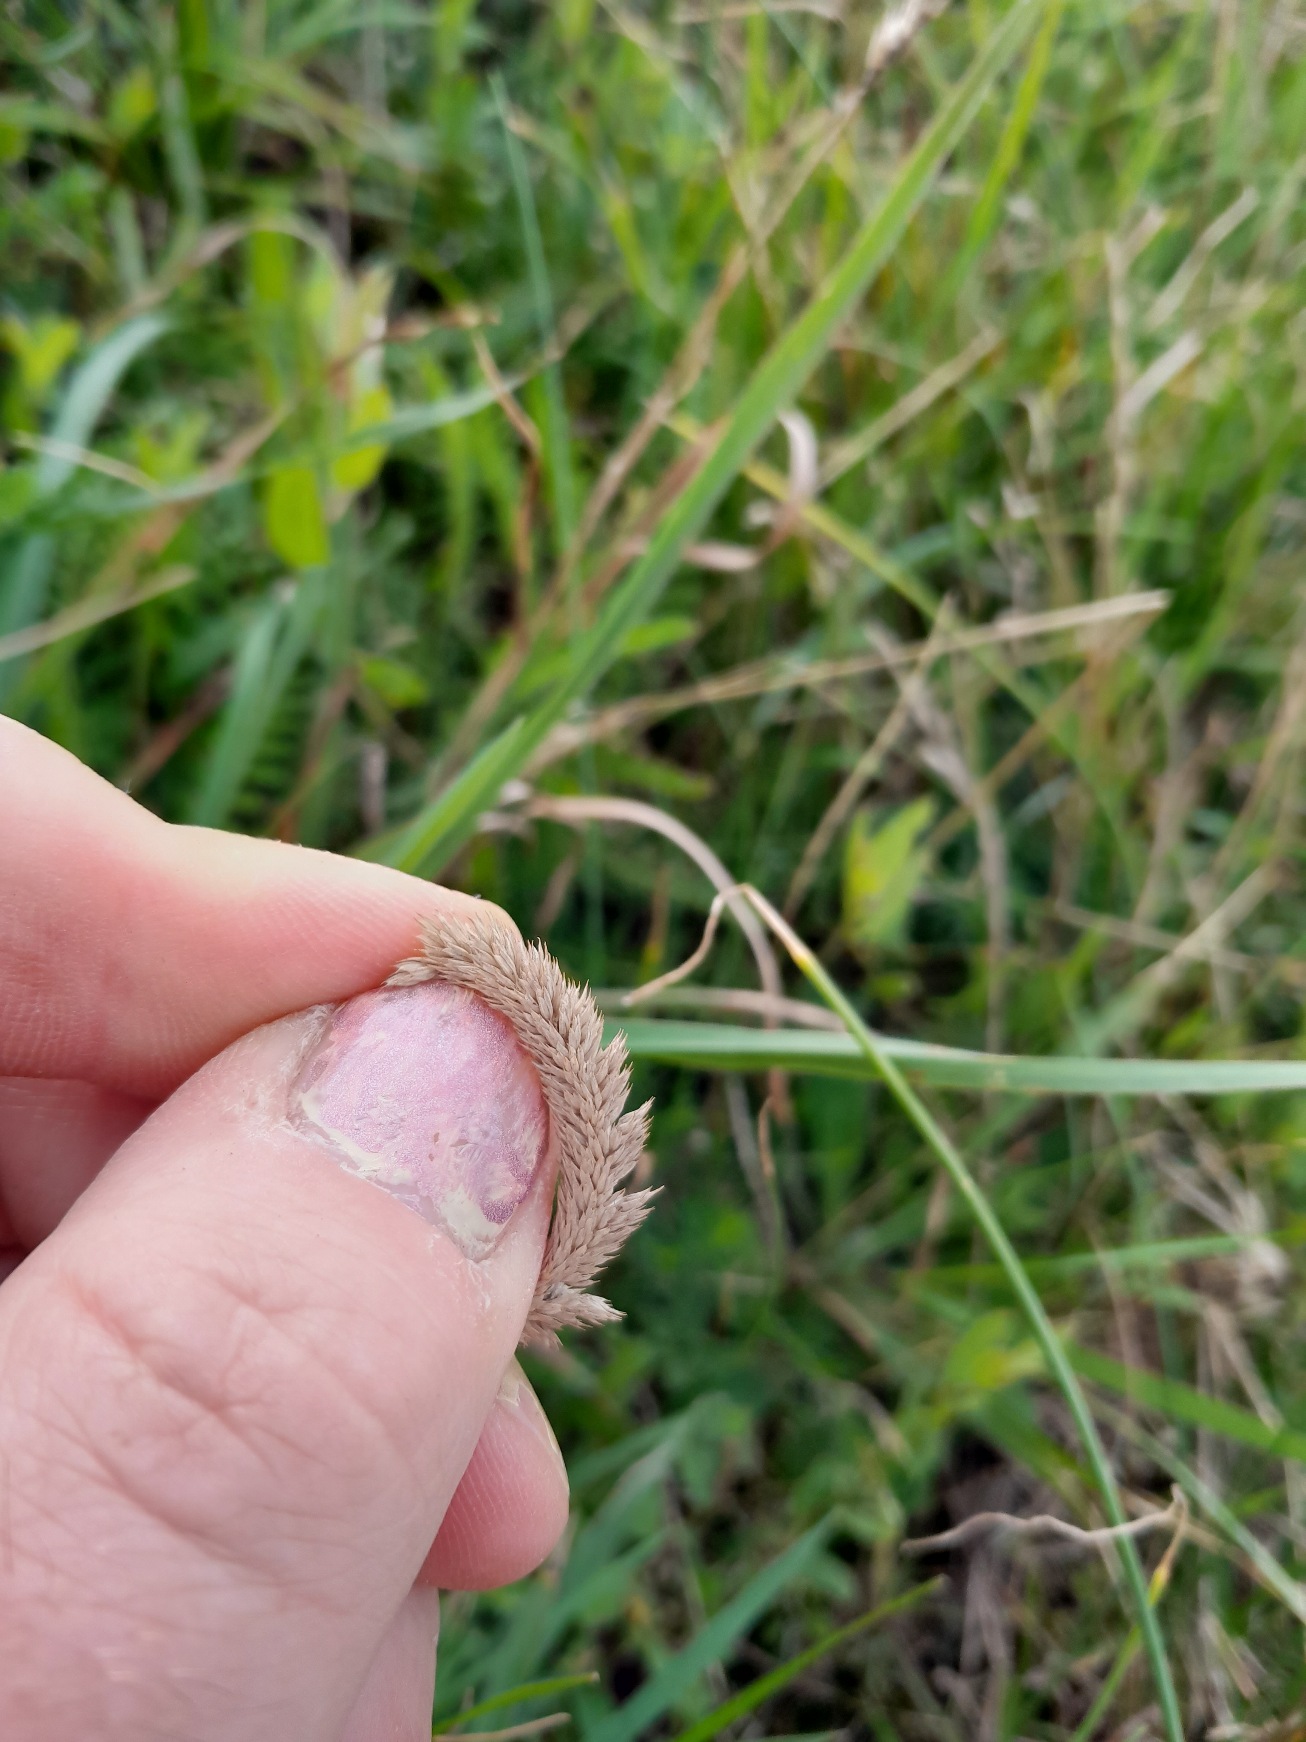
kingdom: Plantae
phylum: Tracheophyta
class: Liliopsida
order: Poales
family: Poaceae
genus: Phleum
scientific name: Phleum phleoides
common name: Glat rottehale
